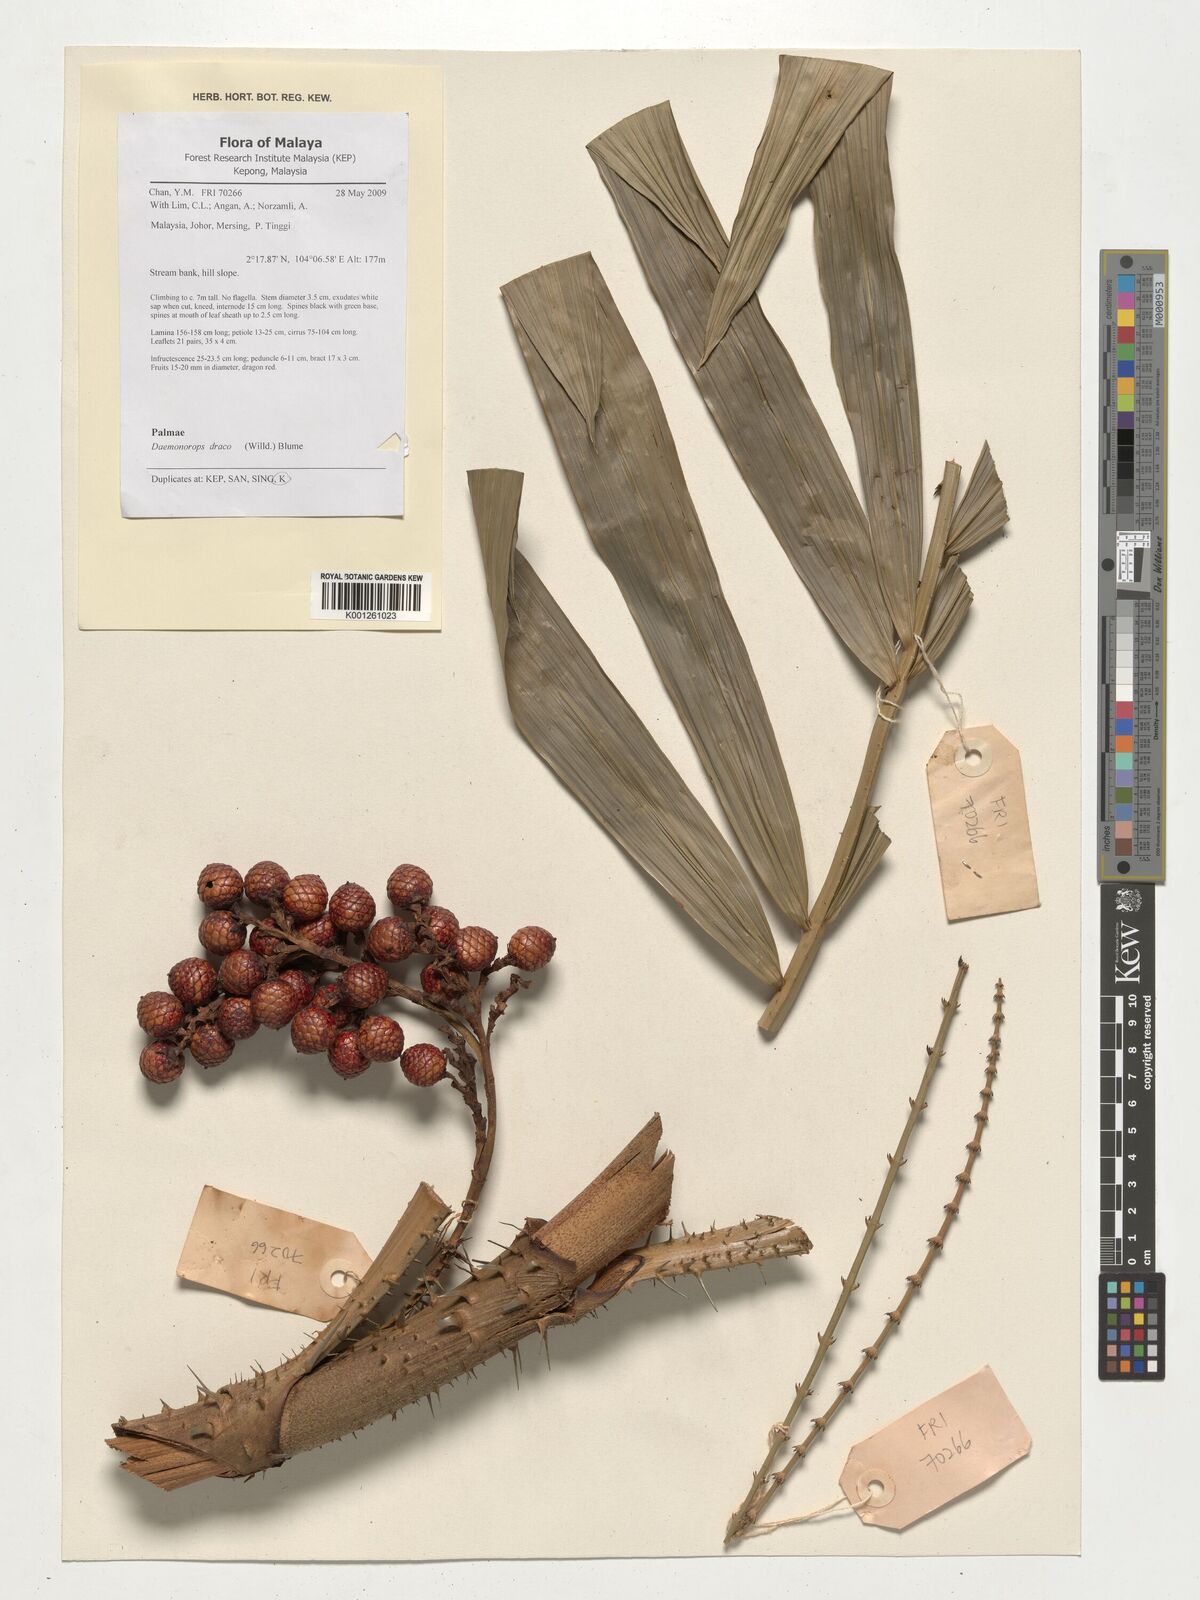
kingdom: Plantae
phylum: Tracheophyta
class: Liliopsida
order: Arecales
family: Arecaceae
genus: Calamus
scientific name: Calamus draco
